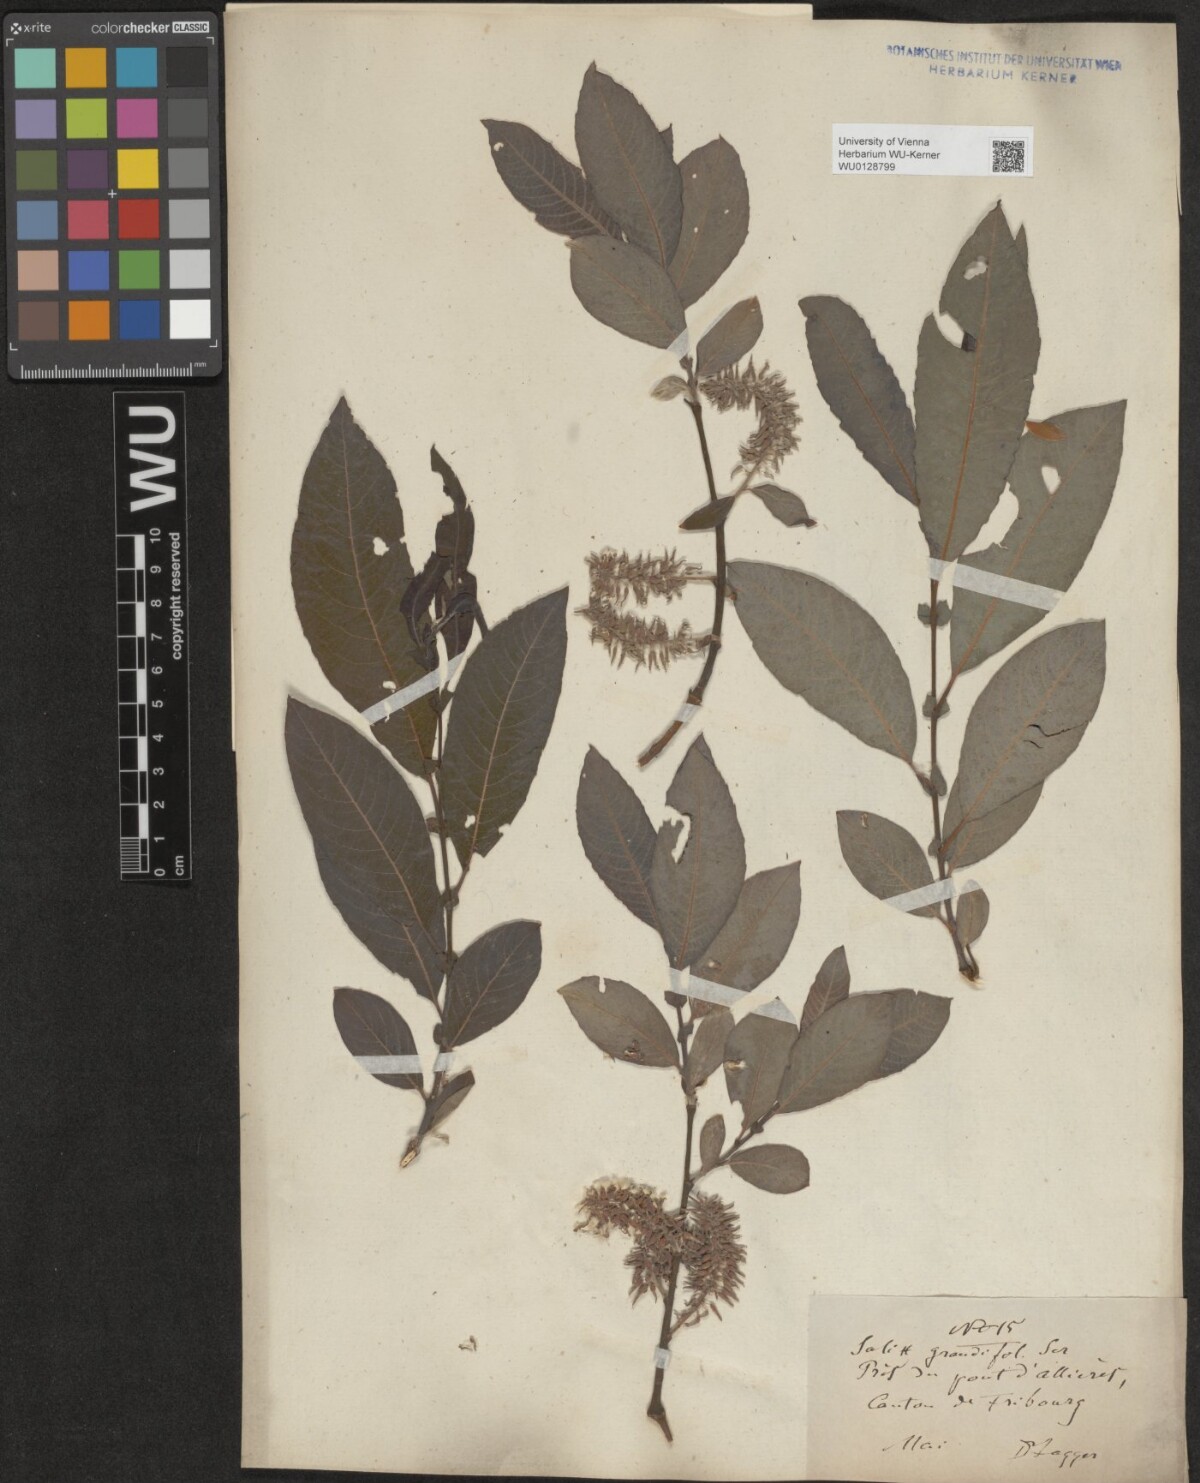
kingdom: Plantae
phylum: Tracheophyta
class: Magnoliopsida
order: Malpighiales
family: Salicaceae
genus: Salix
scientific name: Salix appendiculata
